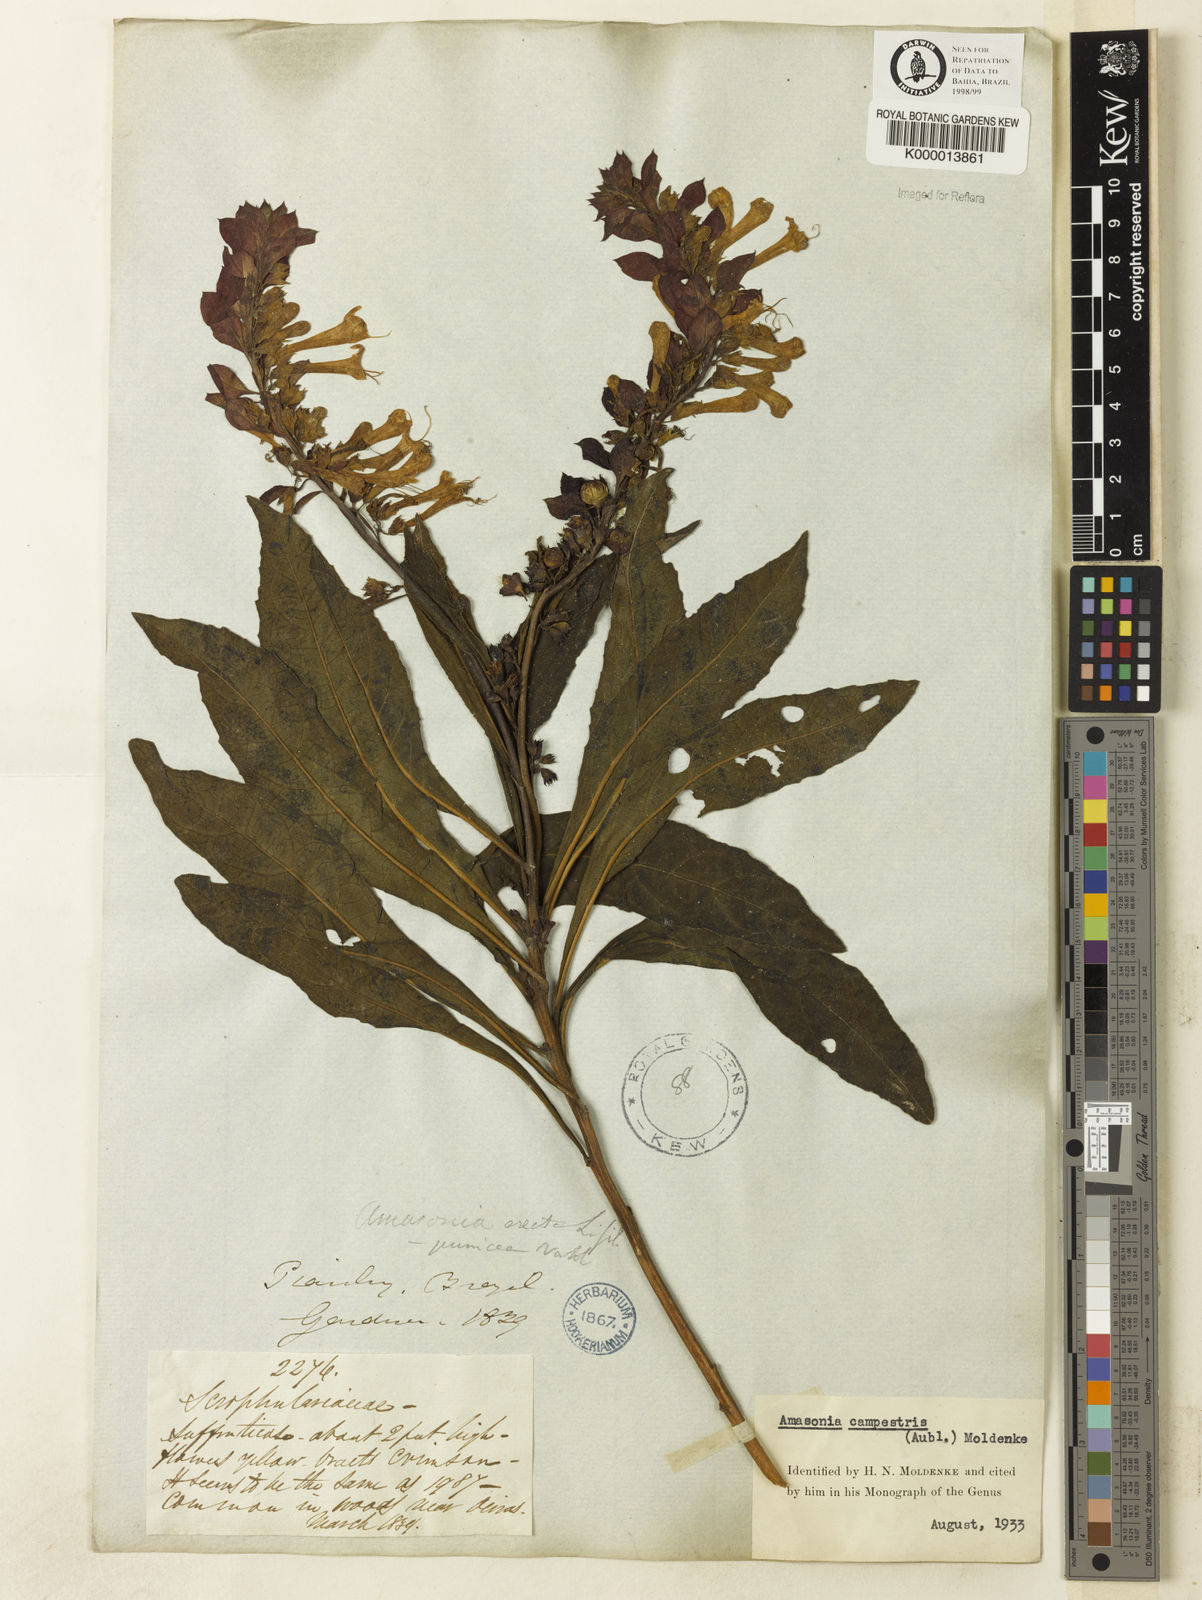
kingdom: Plantae
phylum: Tracheophyta
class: Magnoliopsida
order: Lamiales
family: Lamiaceae
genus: Amasonia
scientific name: Amasonia campestris
